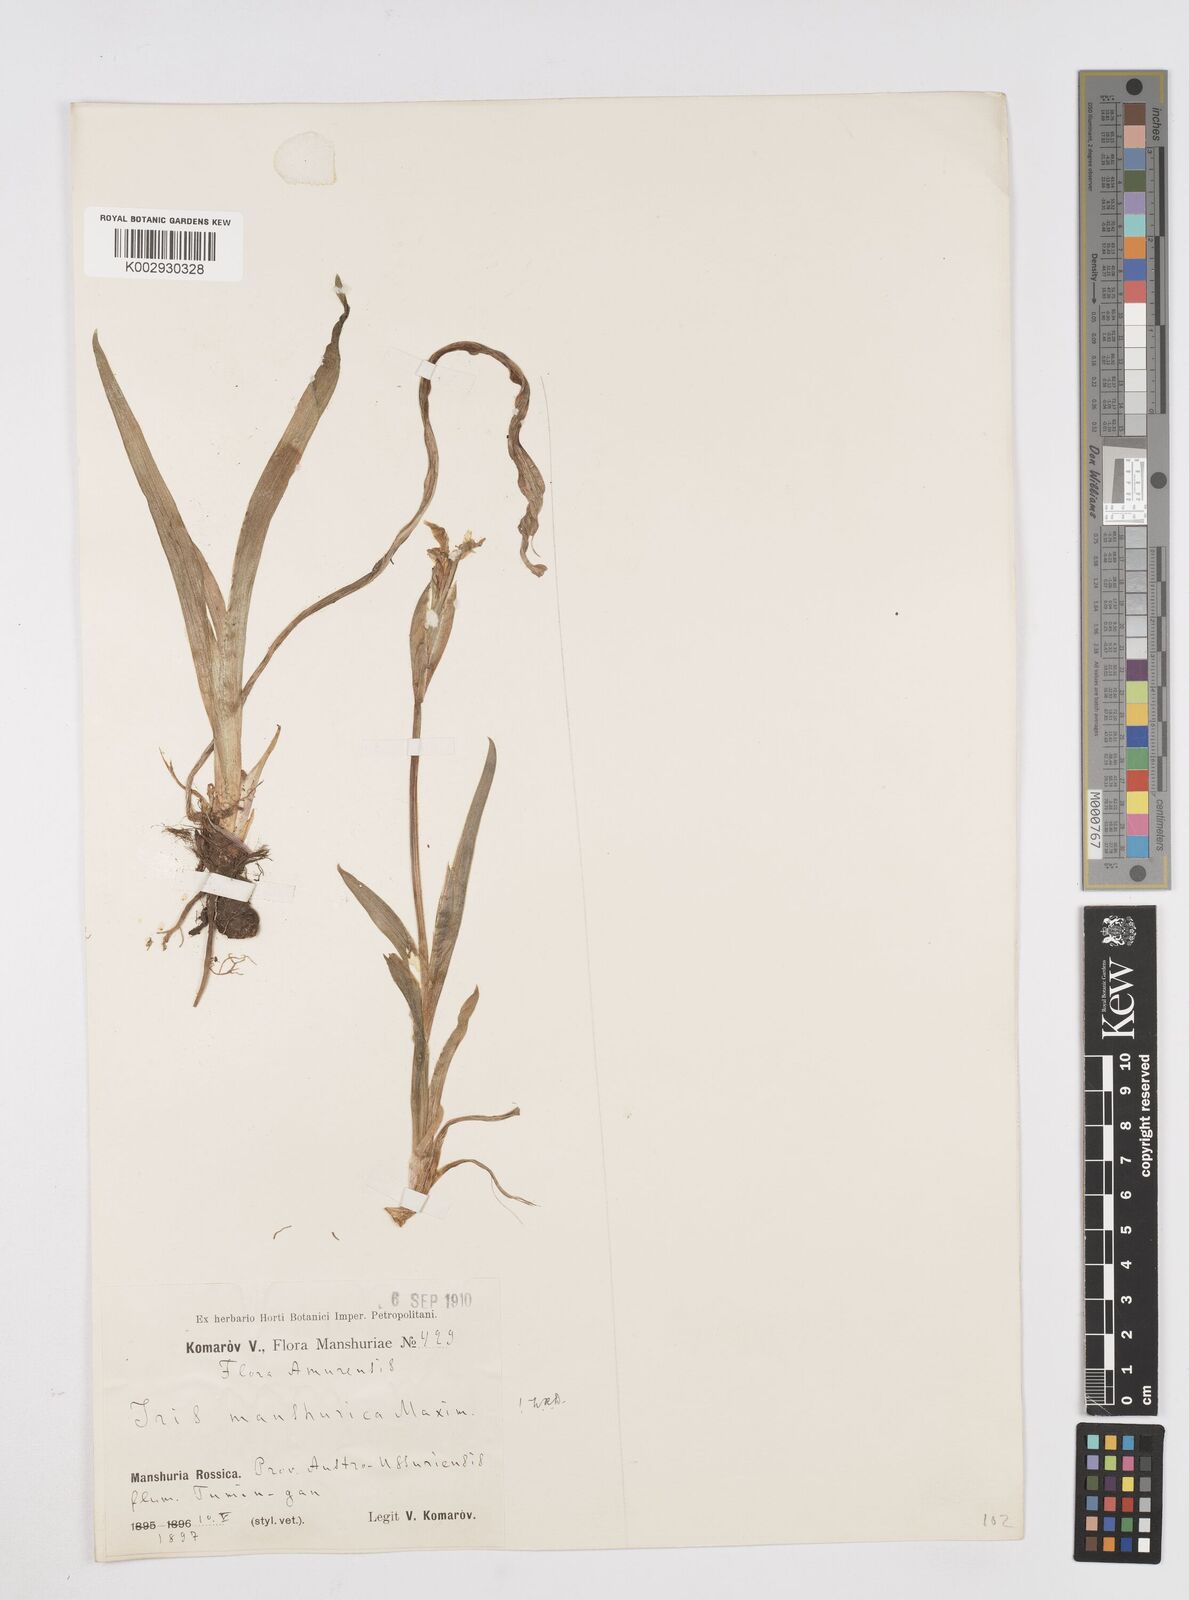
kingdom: Plantae
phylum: Tracheophyta
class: Liliopsida
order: Asparagales
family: Iridaceae
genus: Iris
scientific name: Iris
